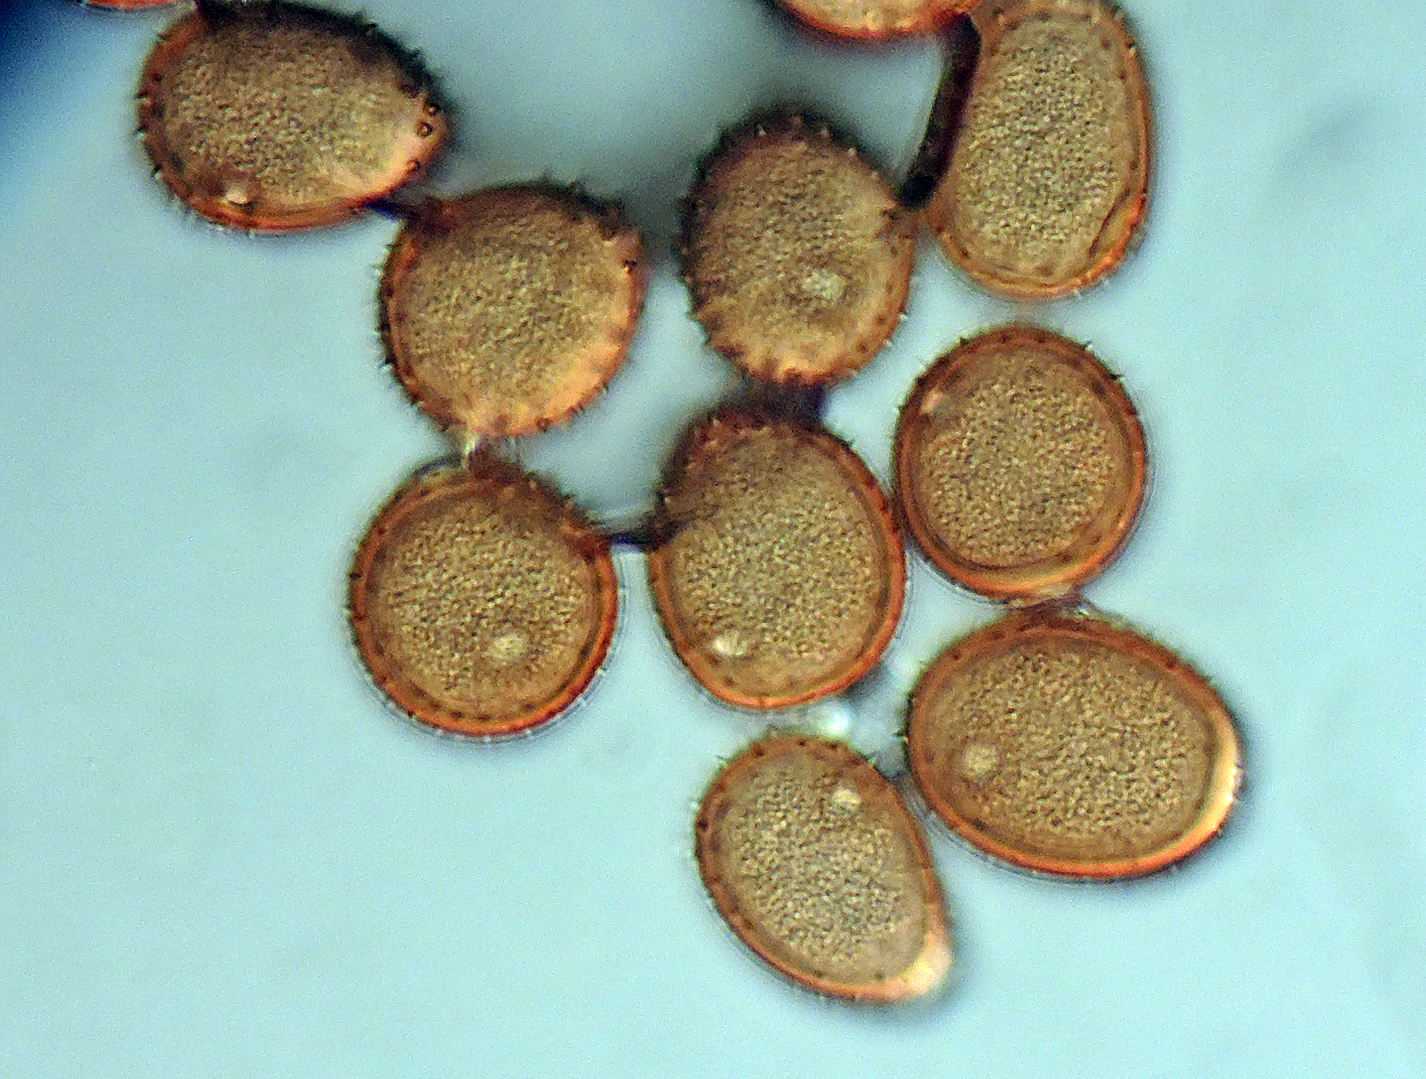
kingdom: Fungi
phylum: Basidiomycota
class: Pucciniomycetes
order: Pucciniales
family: Pucciniaceae
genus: Puccinia
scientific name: Puccinia acetosae
